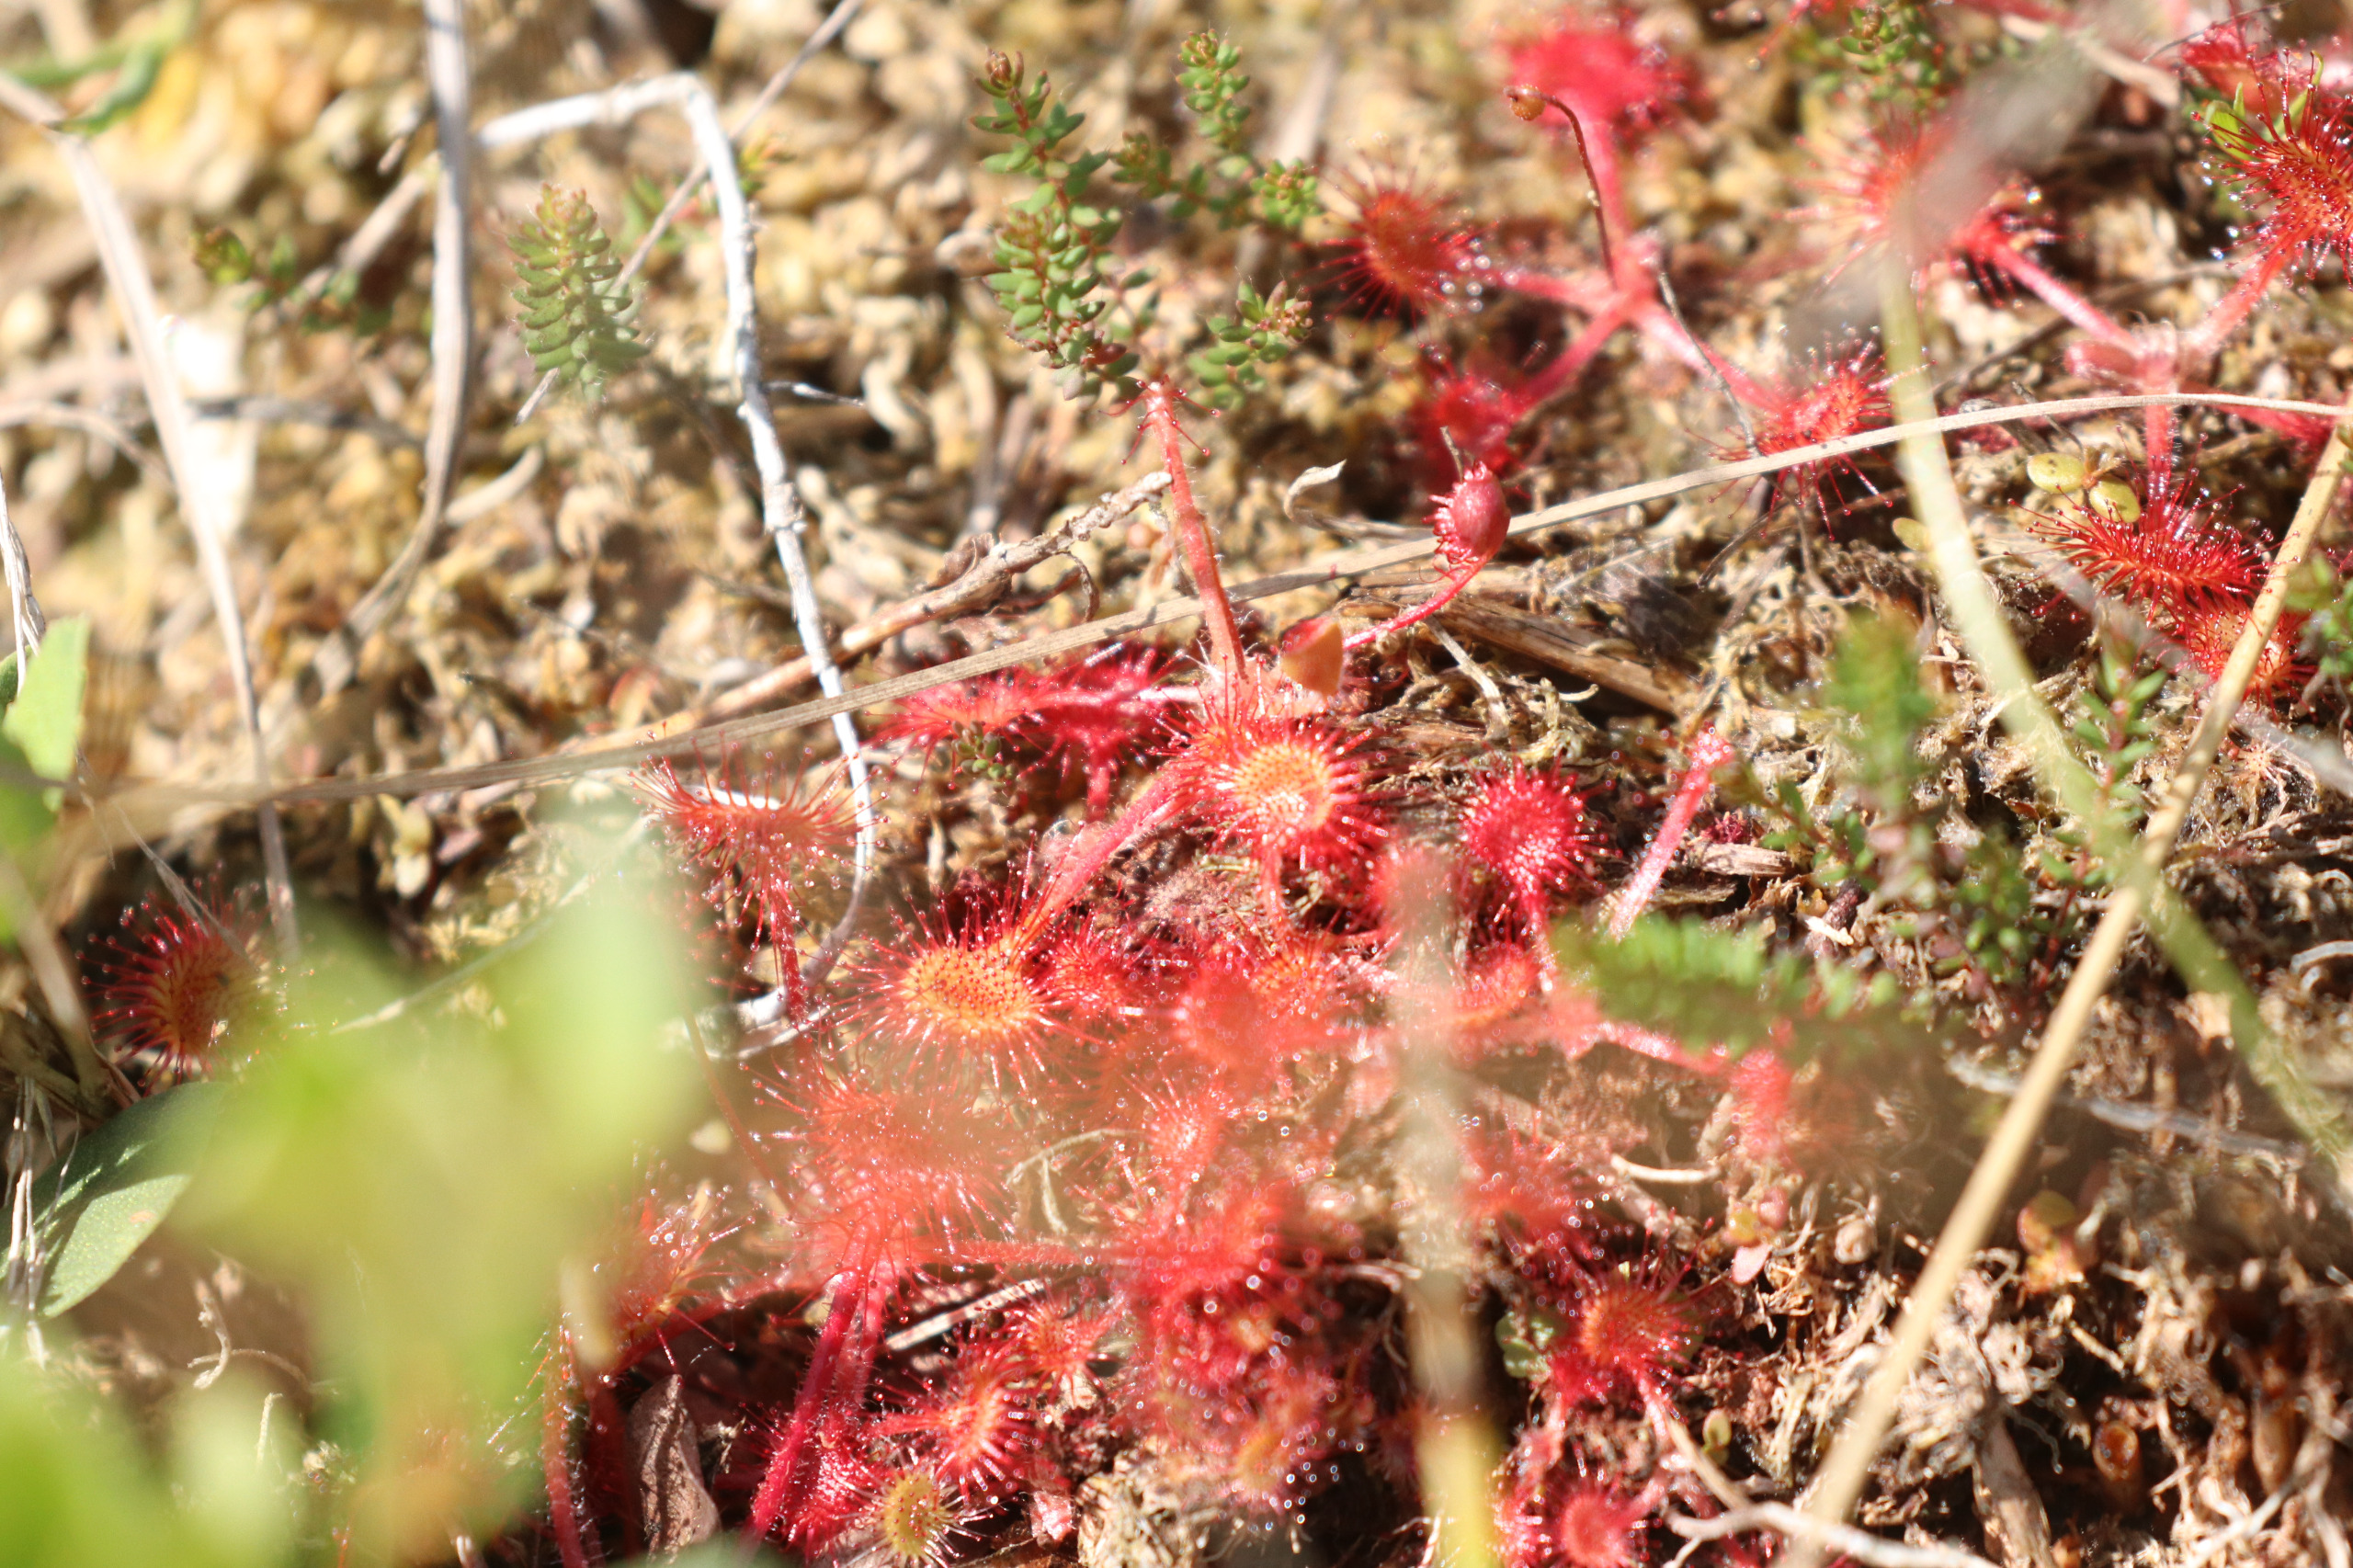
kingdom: Plantae
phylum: Tracheophyta
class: Magnoliopsida
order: Caryophyllales
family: Droseraceae
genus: Drosera
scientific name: Drosera rotundifolia
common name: Rundbladet soldug
